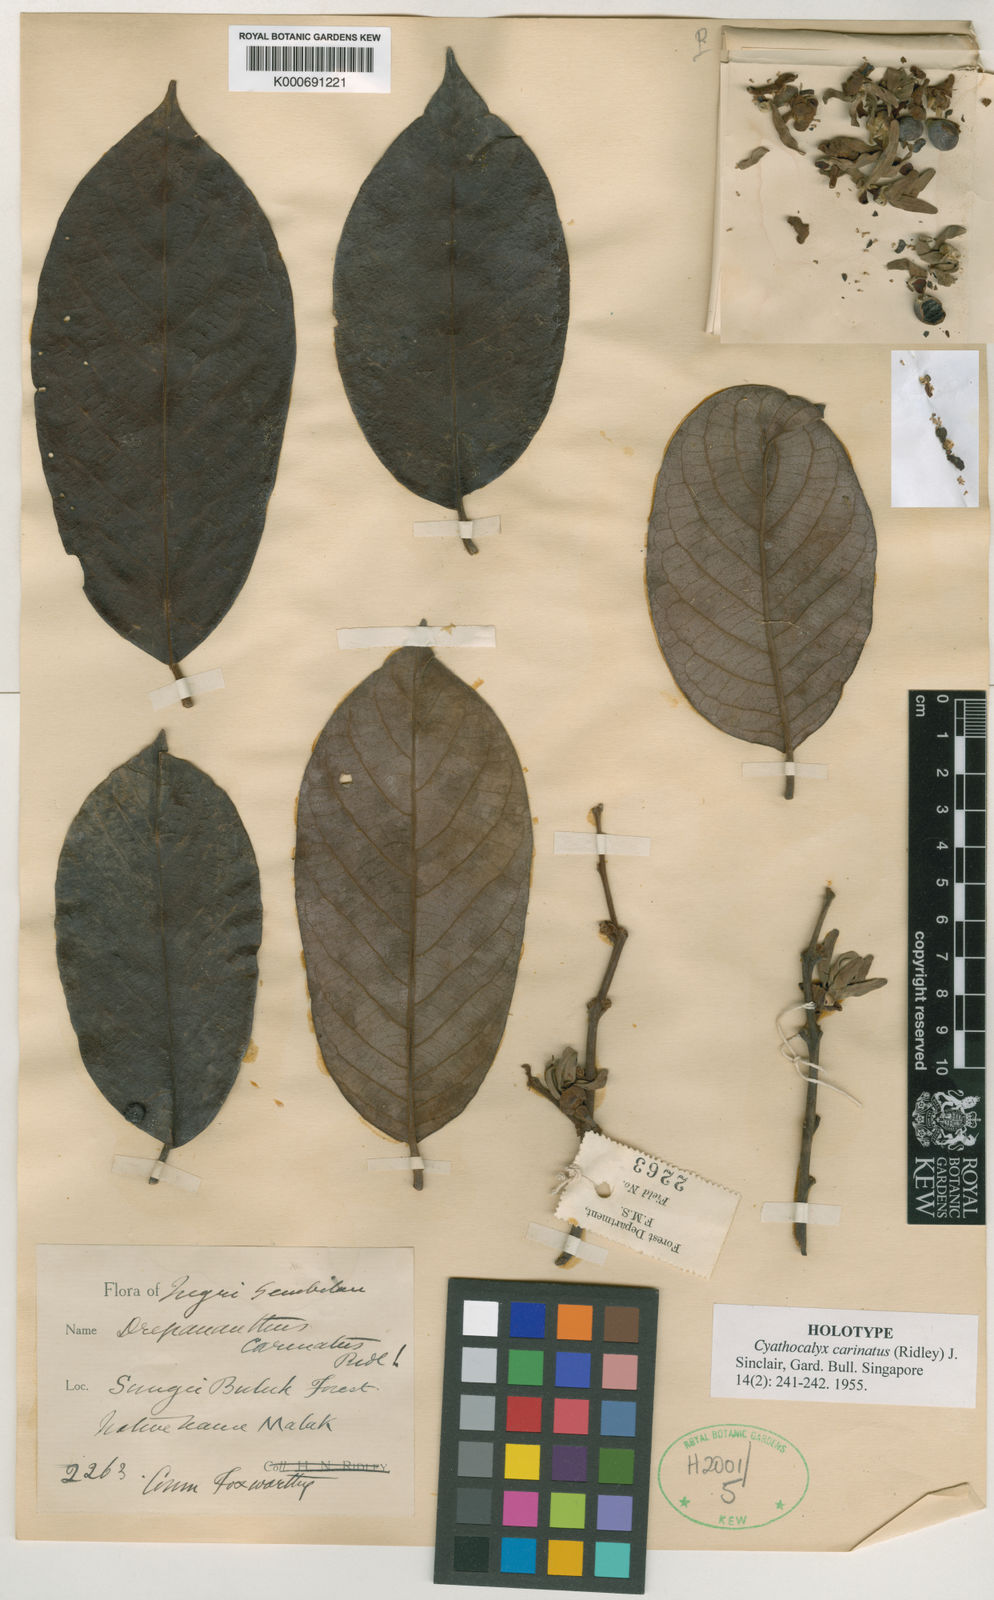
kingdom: Plantae
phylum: Tracheophyta
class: Magnoliopsida
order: Magnoliales
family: Annonaceae
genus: Drepananthus
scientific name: Drepananthus carinatus
